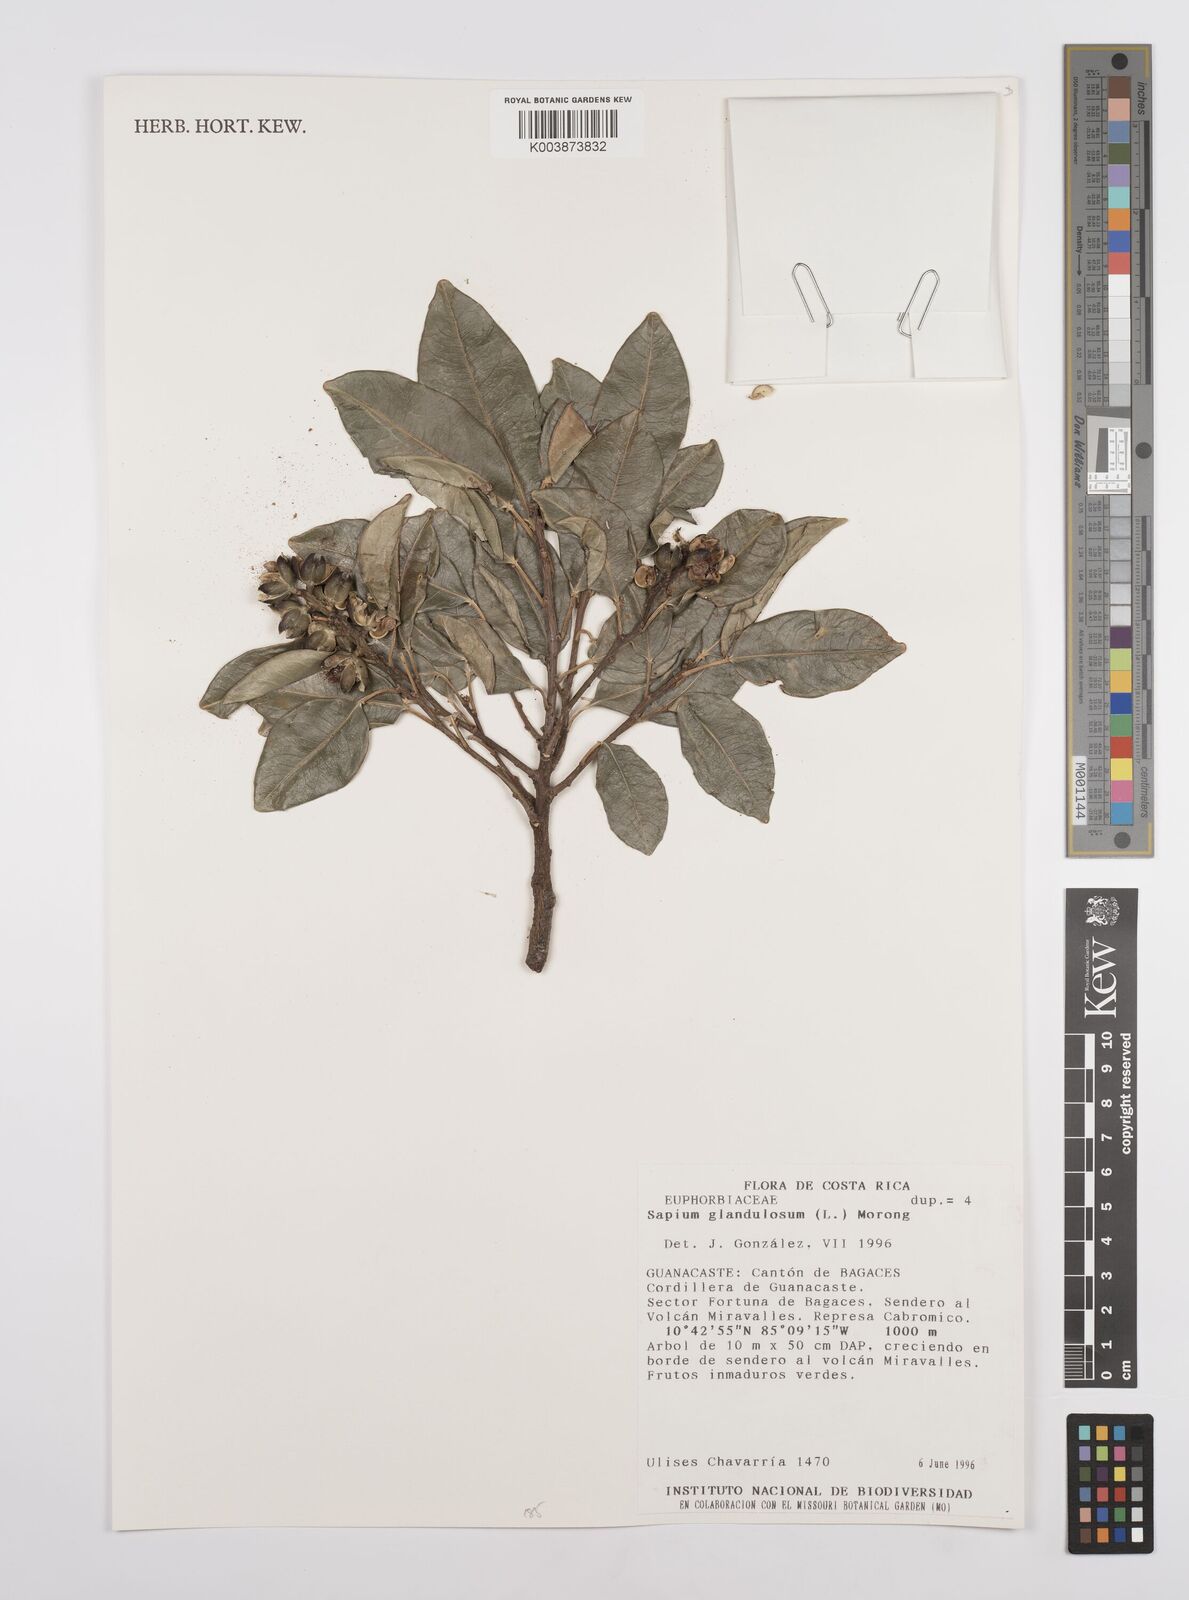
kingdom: Plantae
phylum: Tracheophyta
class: Magnoliopsida
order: Malpighiales
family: Euphorbiaceae
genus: Sapium
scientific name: Sapium glandulosum
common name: Milktree
